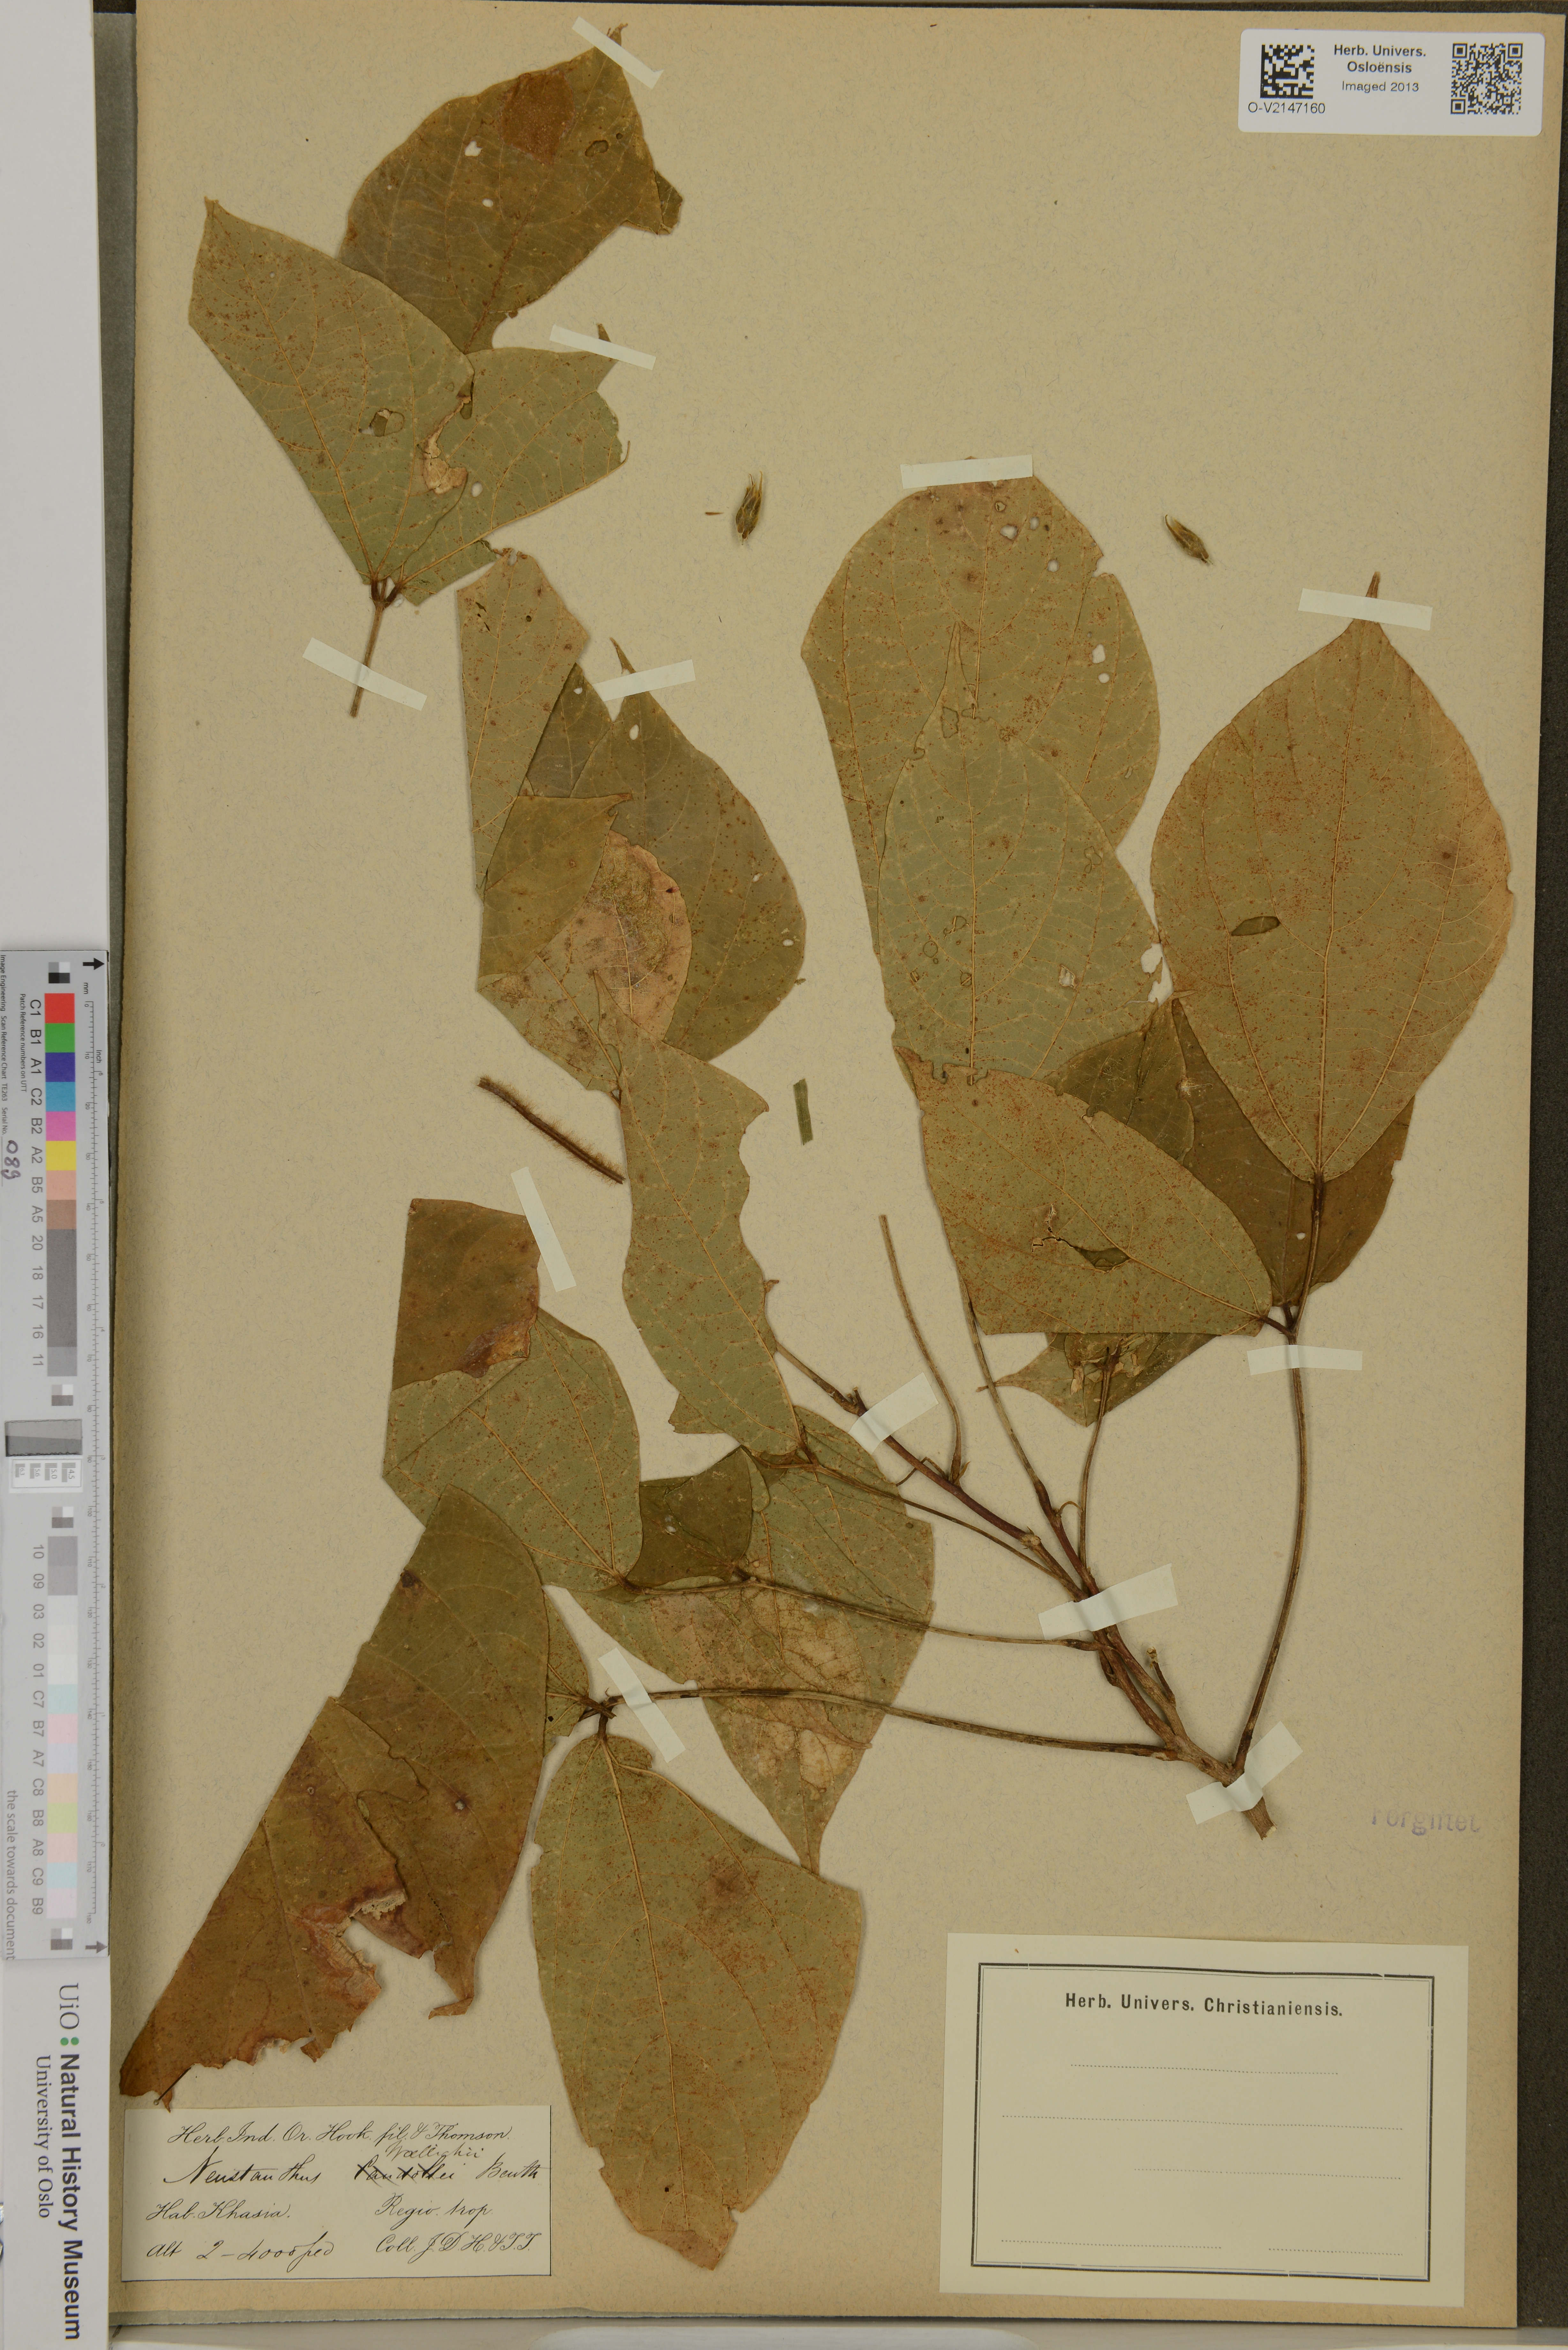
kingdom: Plantae
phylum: Tracheophyta
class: Magnoliopsida
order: Fabales
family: Fabaceae
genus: Haymondia
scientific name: Haymondia wallichii
